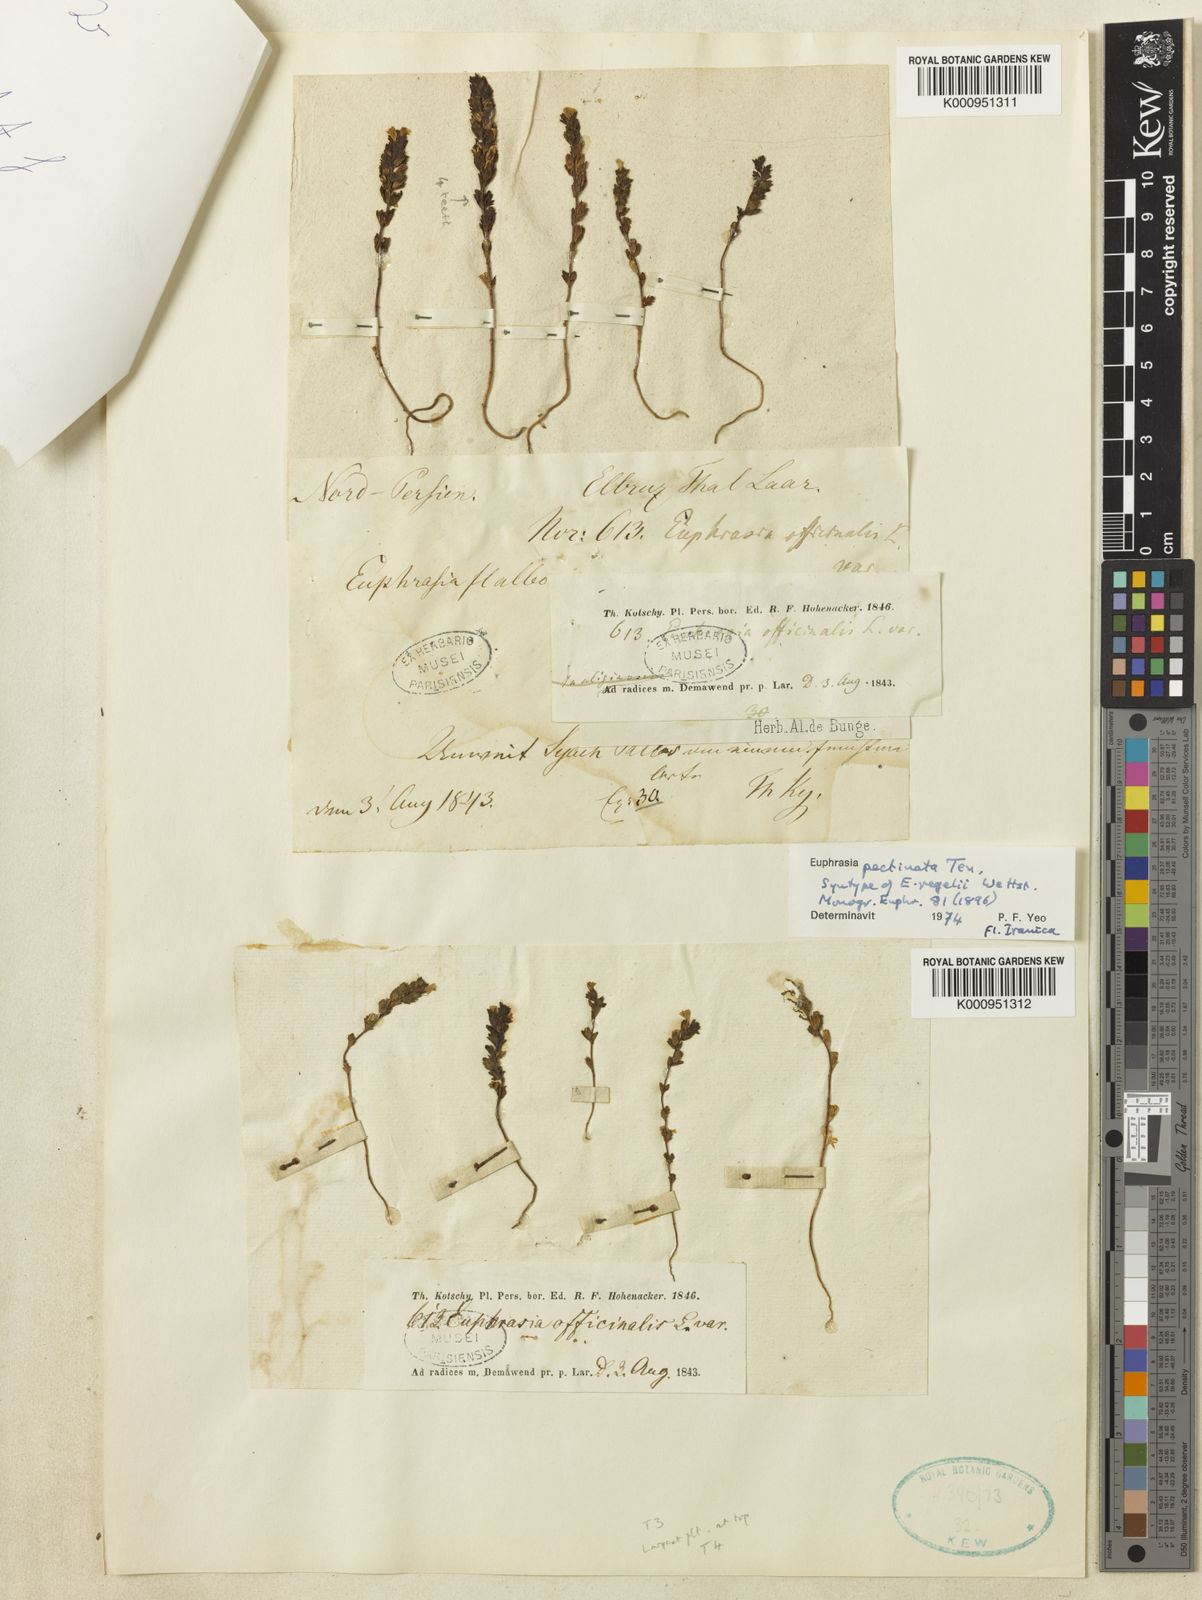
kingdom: Plantae
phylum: Tracheophyta
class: Magnoliopsida
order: Lamiales
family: Orobanchaceae
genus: Euphrasia
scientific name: Euphrasia pectinata
